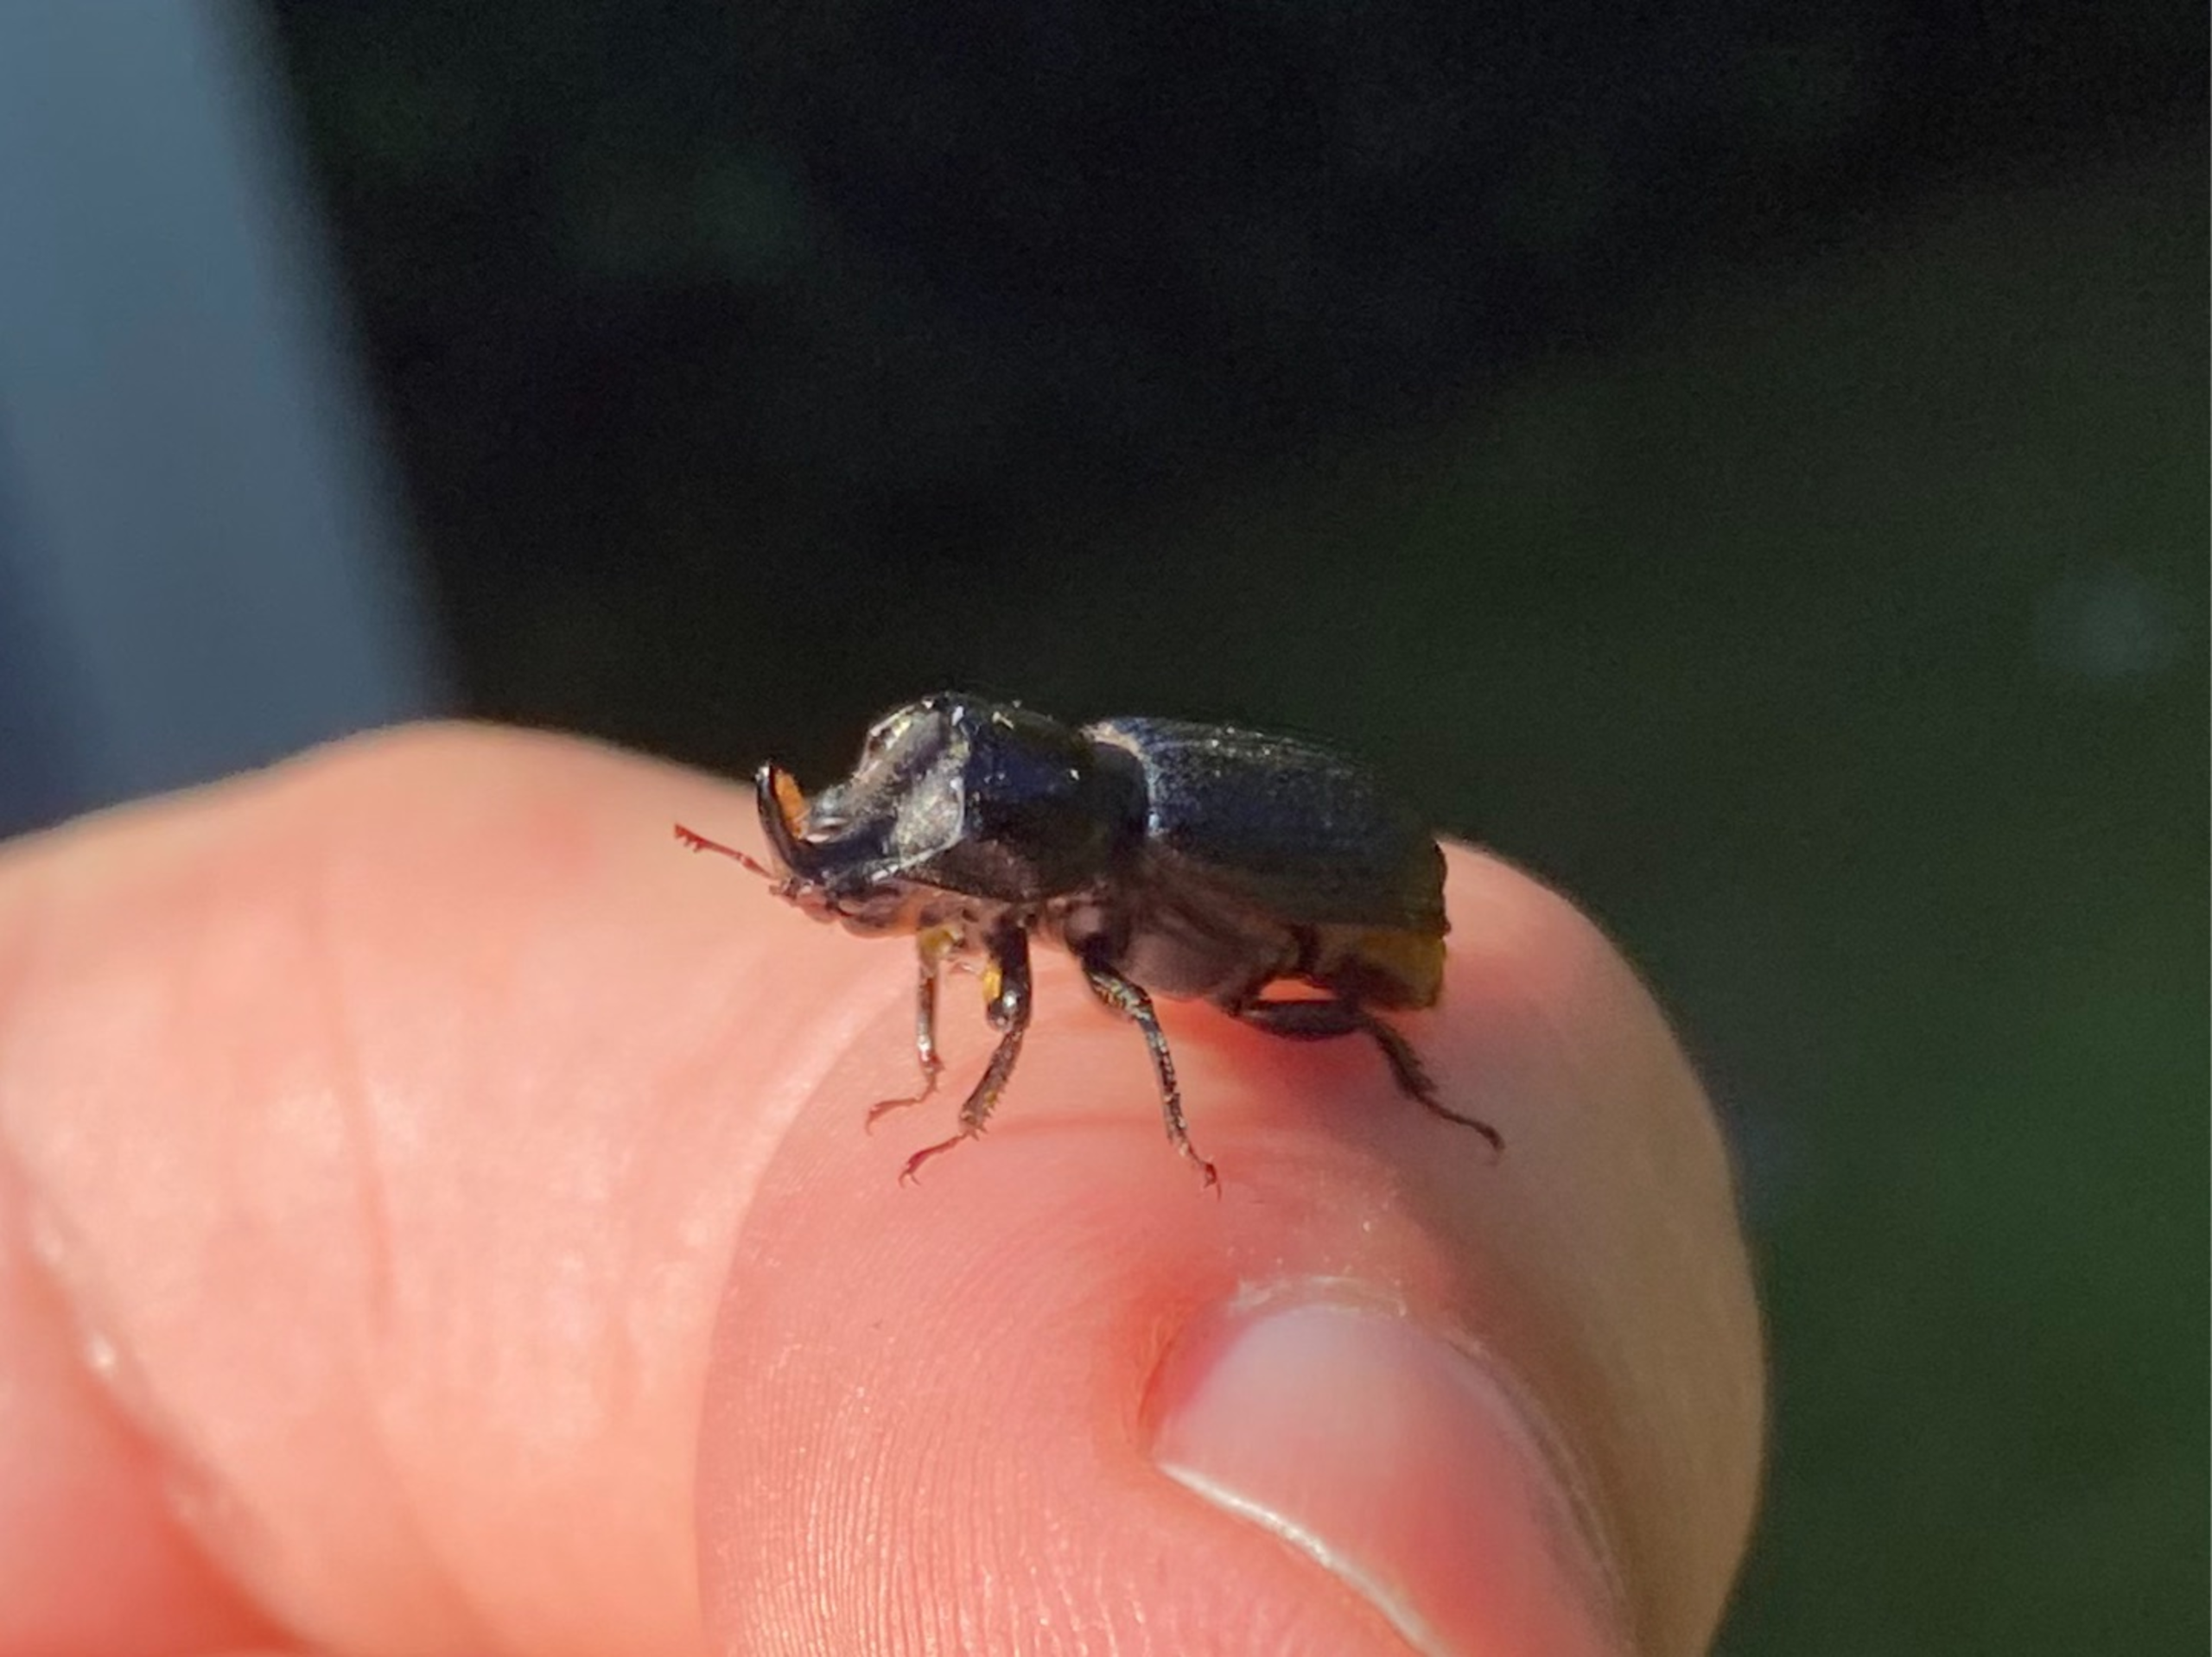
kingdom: Animalia
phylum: Arthropoda
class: Insecta
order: Coleoptera
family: Lucanidae
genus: Sinodendron
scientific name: Sinodendron cylindricum
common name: Valsehjort
